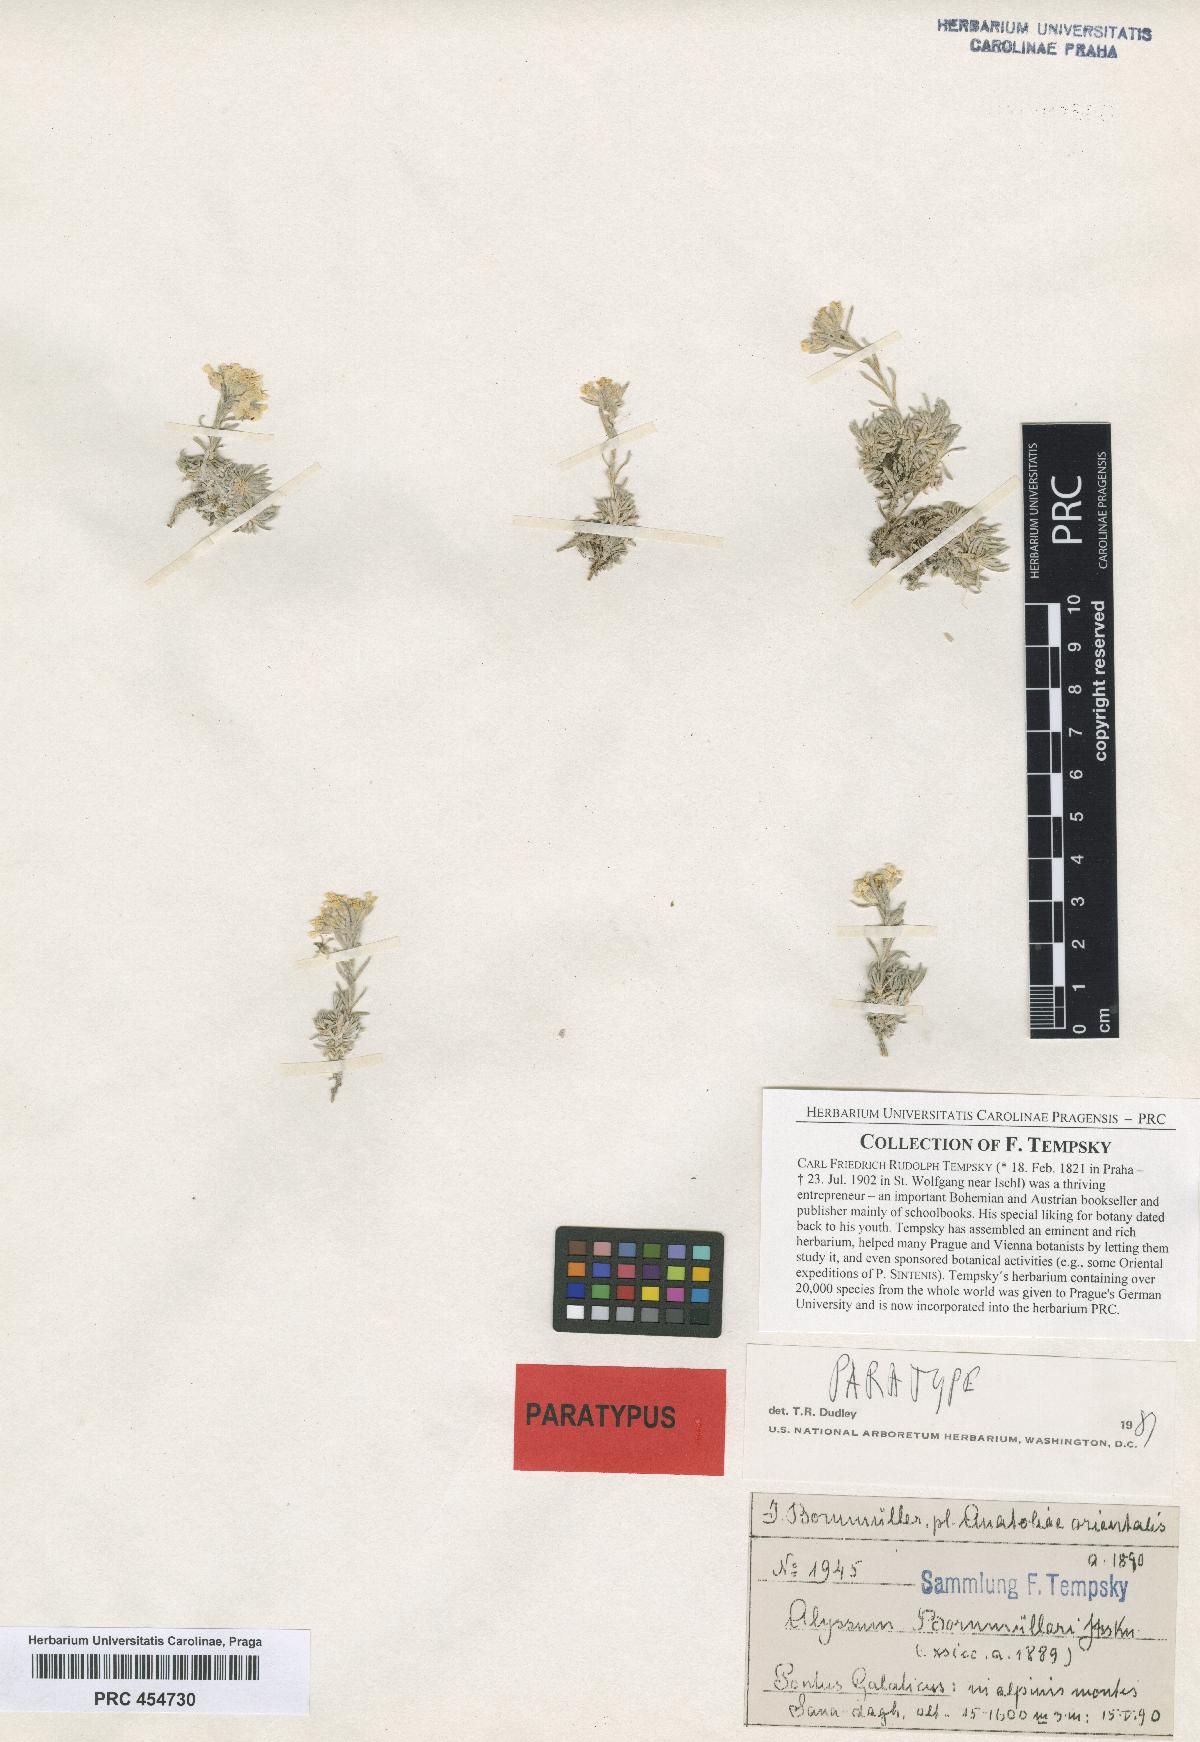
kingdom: Plantae
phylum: Tracheophyta
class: Magnoliopsida
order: Brassicales
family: Brassicaceae
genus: Alyssum
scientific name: Alyssum bornmuelleri
